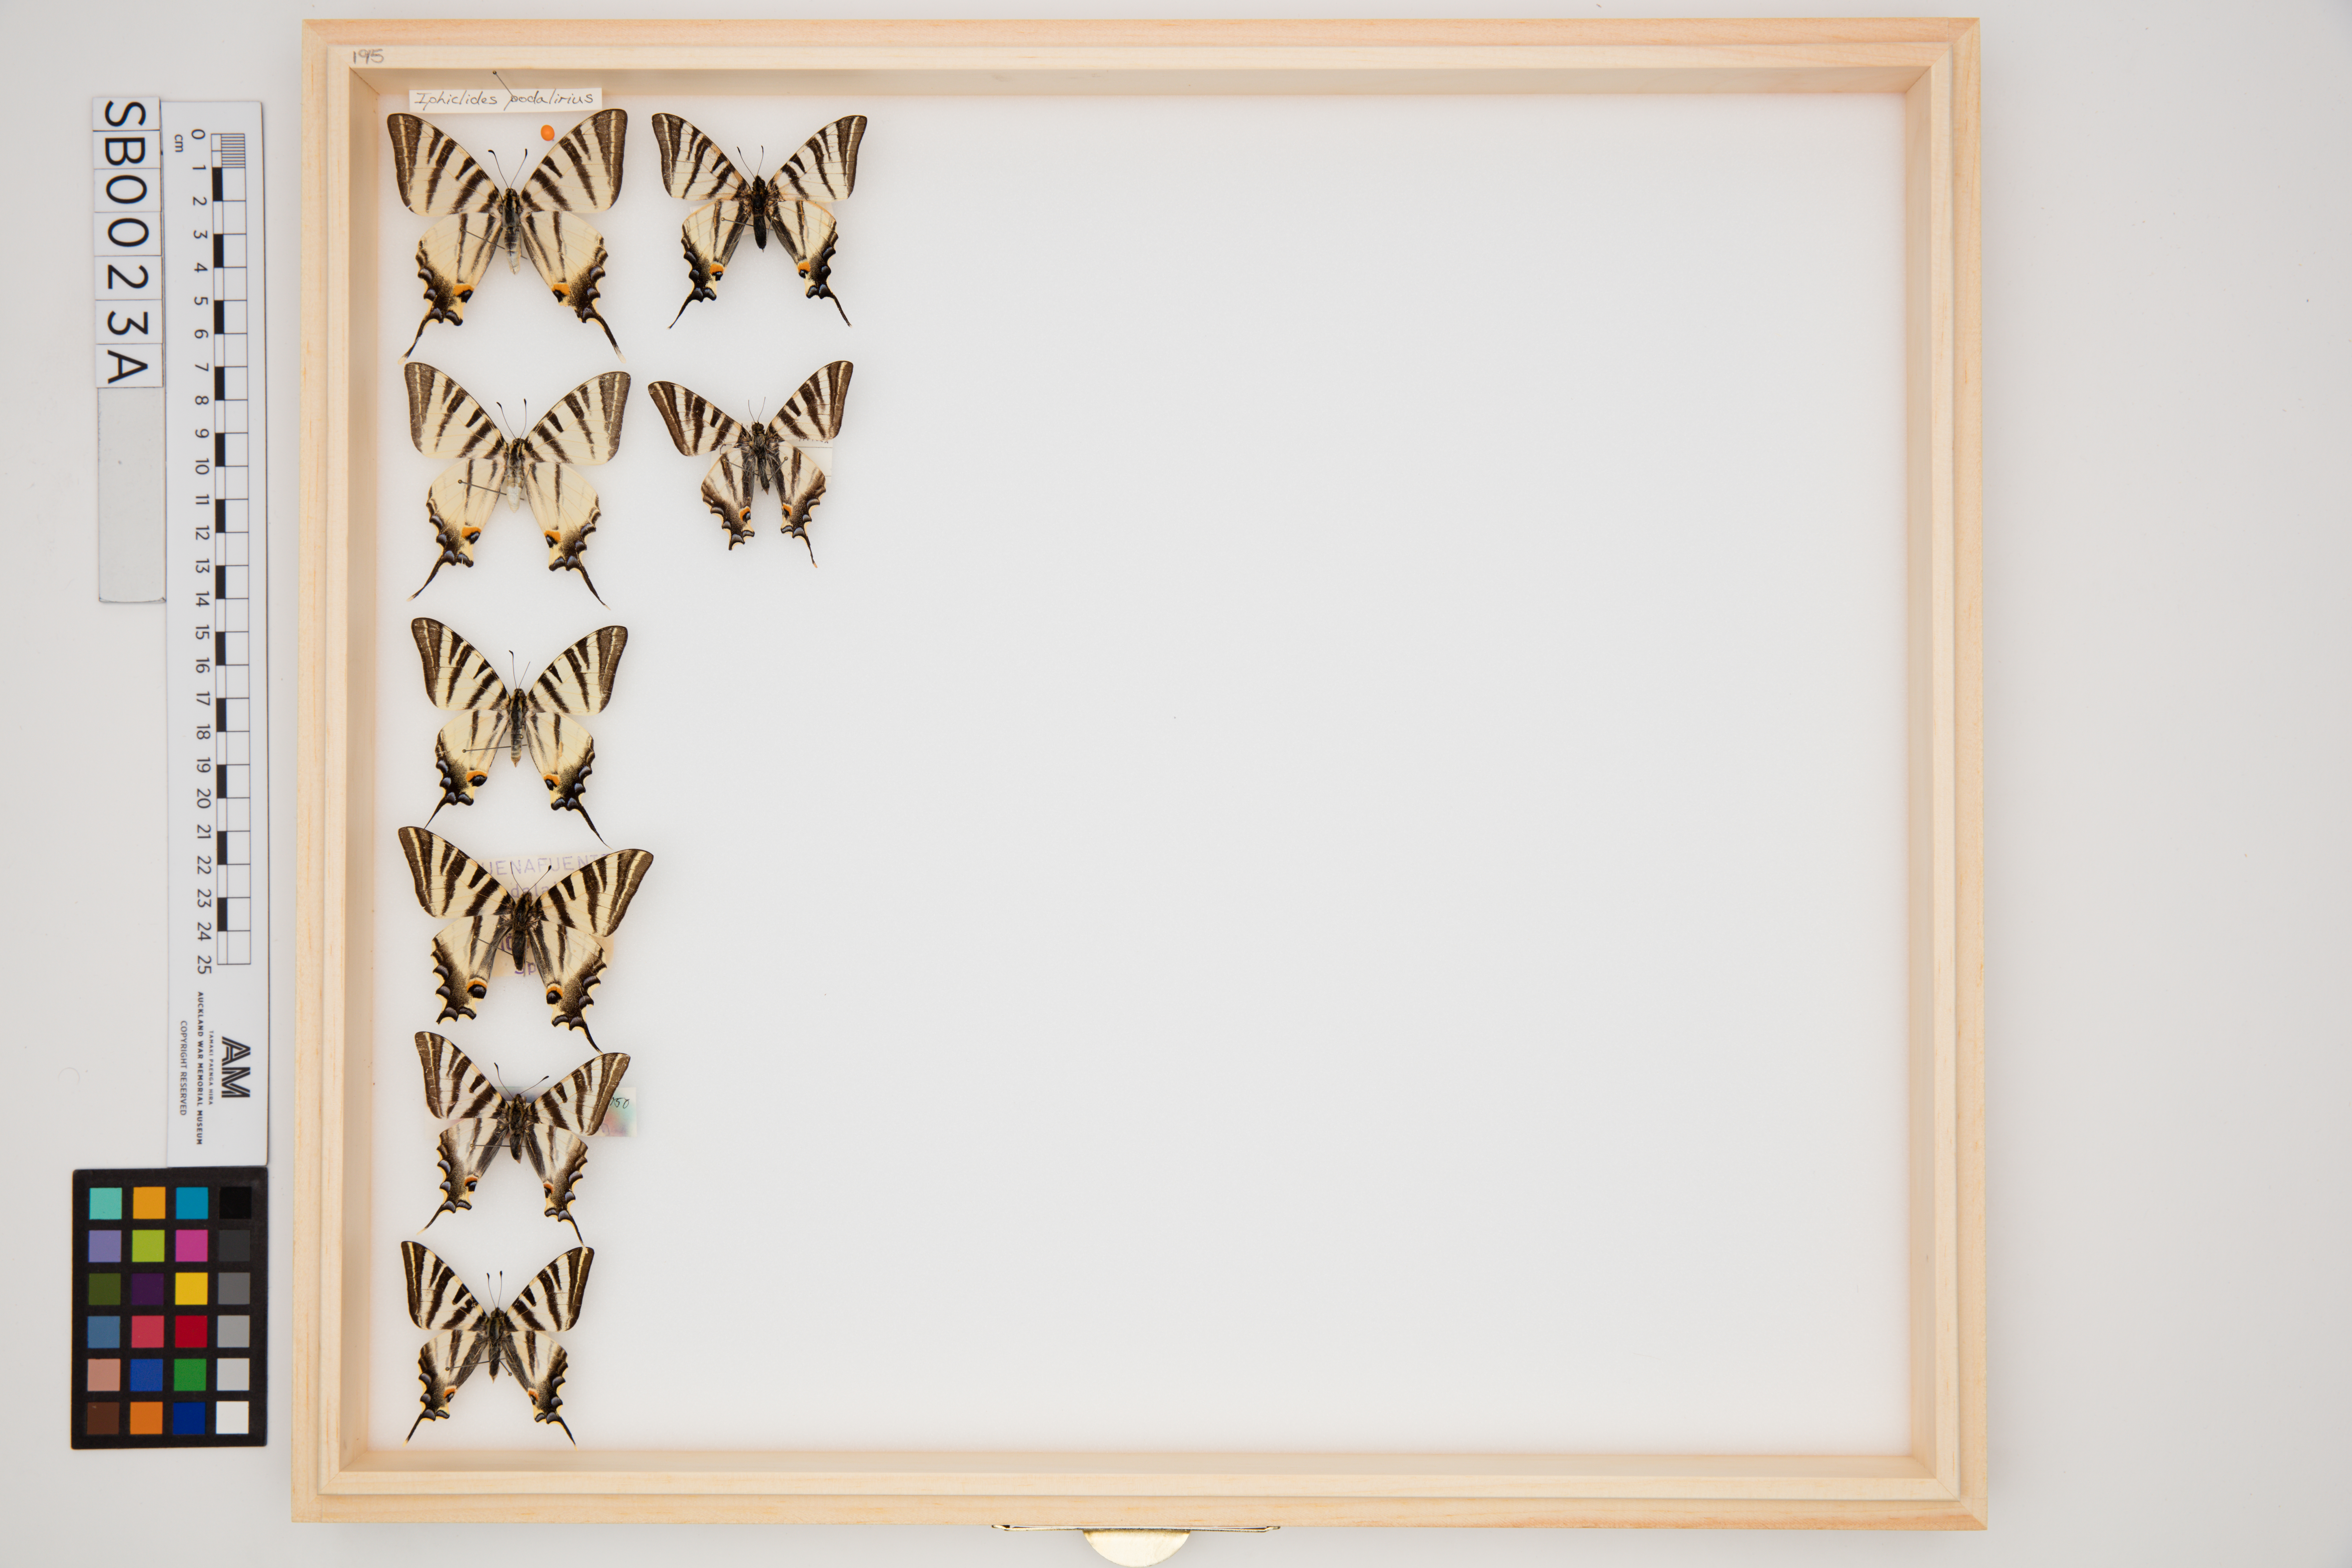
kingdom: Animalia
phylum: Arthropoda
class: Insecta
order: Lepidoptera
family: Papilionidae
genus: Iphiclides
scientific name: Iphiclides podalirius
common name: Scarce swallowtail
